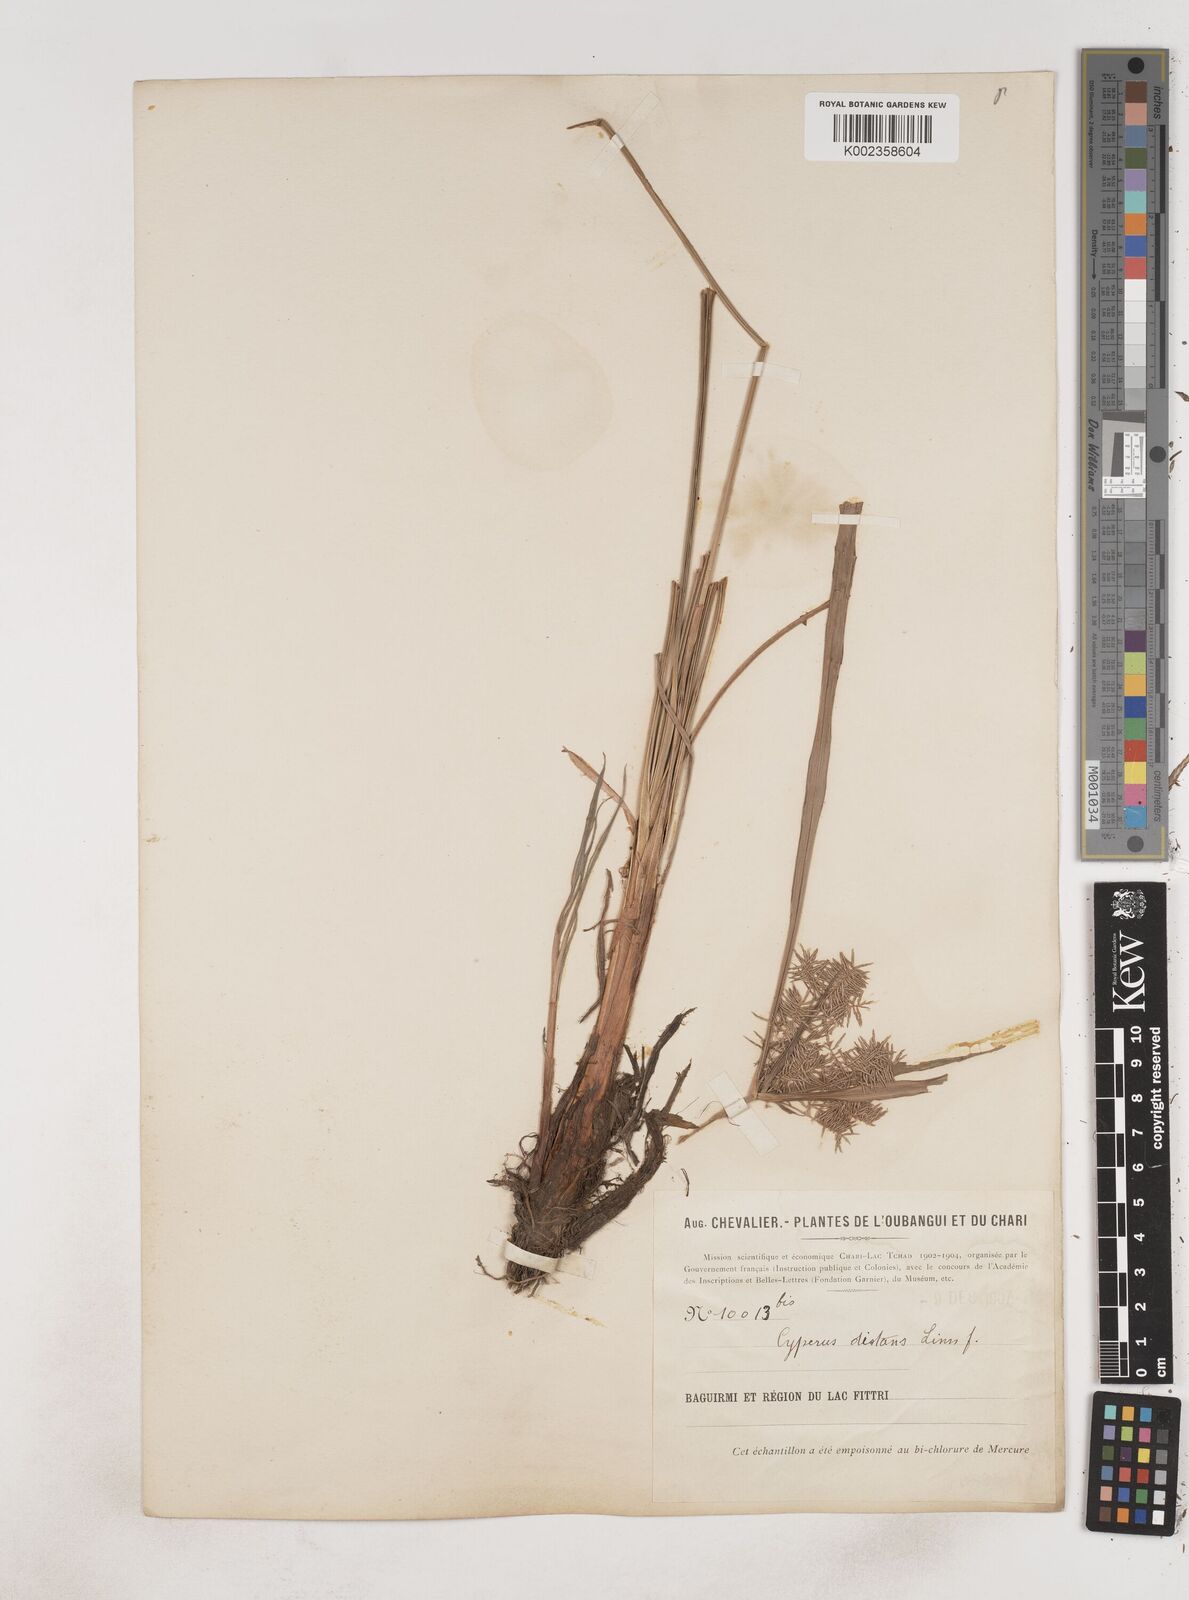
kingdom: Plantae
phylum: Tracheophyta
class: Liliopsida
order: Poales
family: Cyperaceae
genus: Cyperus
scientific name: Cyperus distans
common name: Slender cyperus
